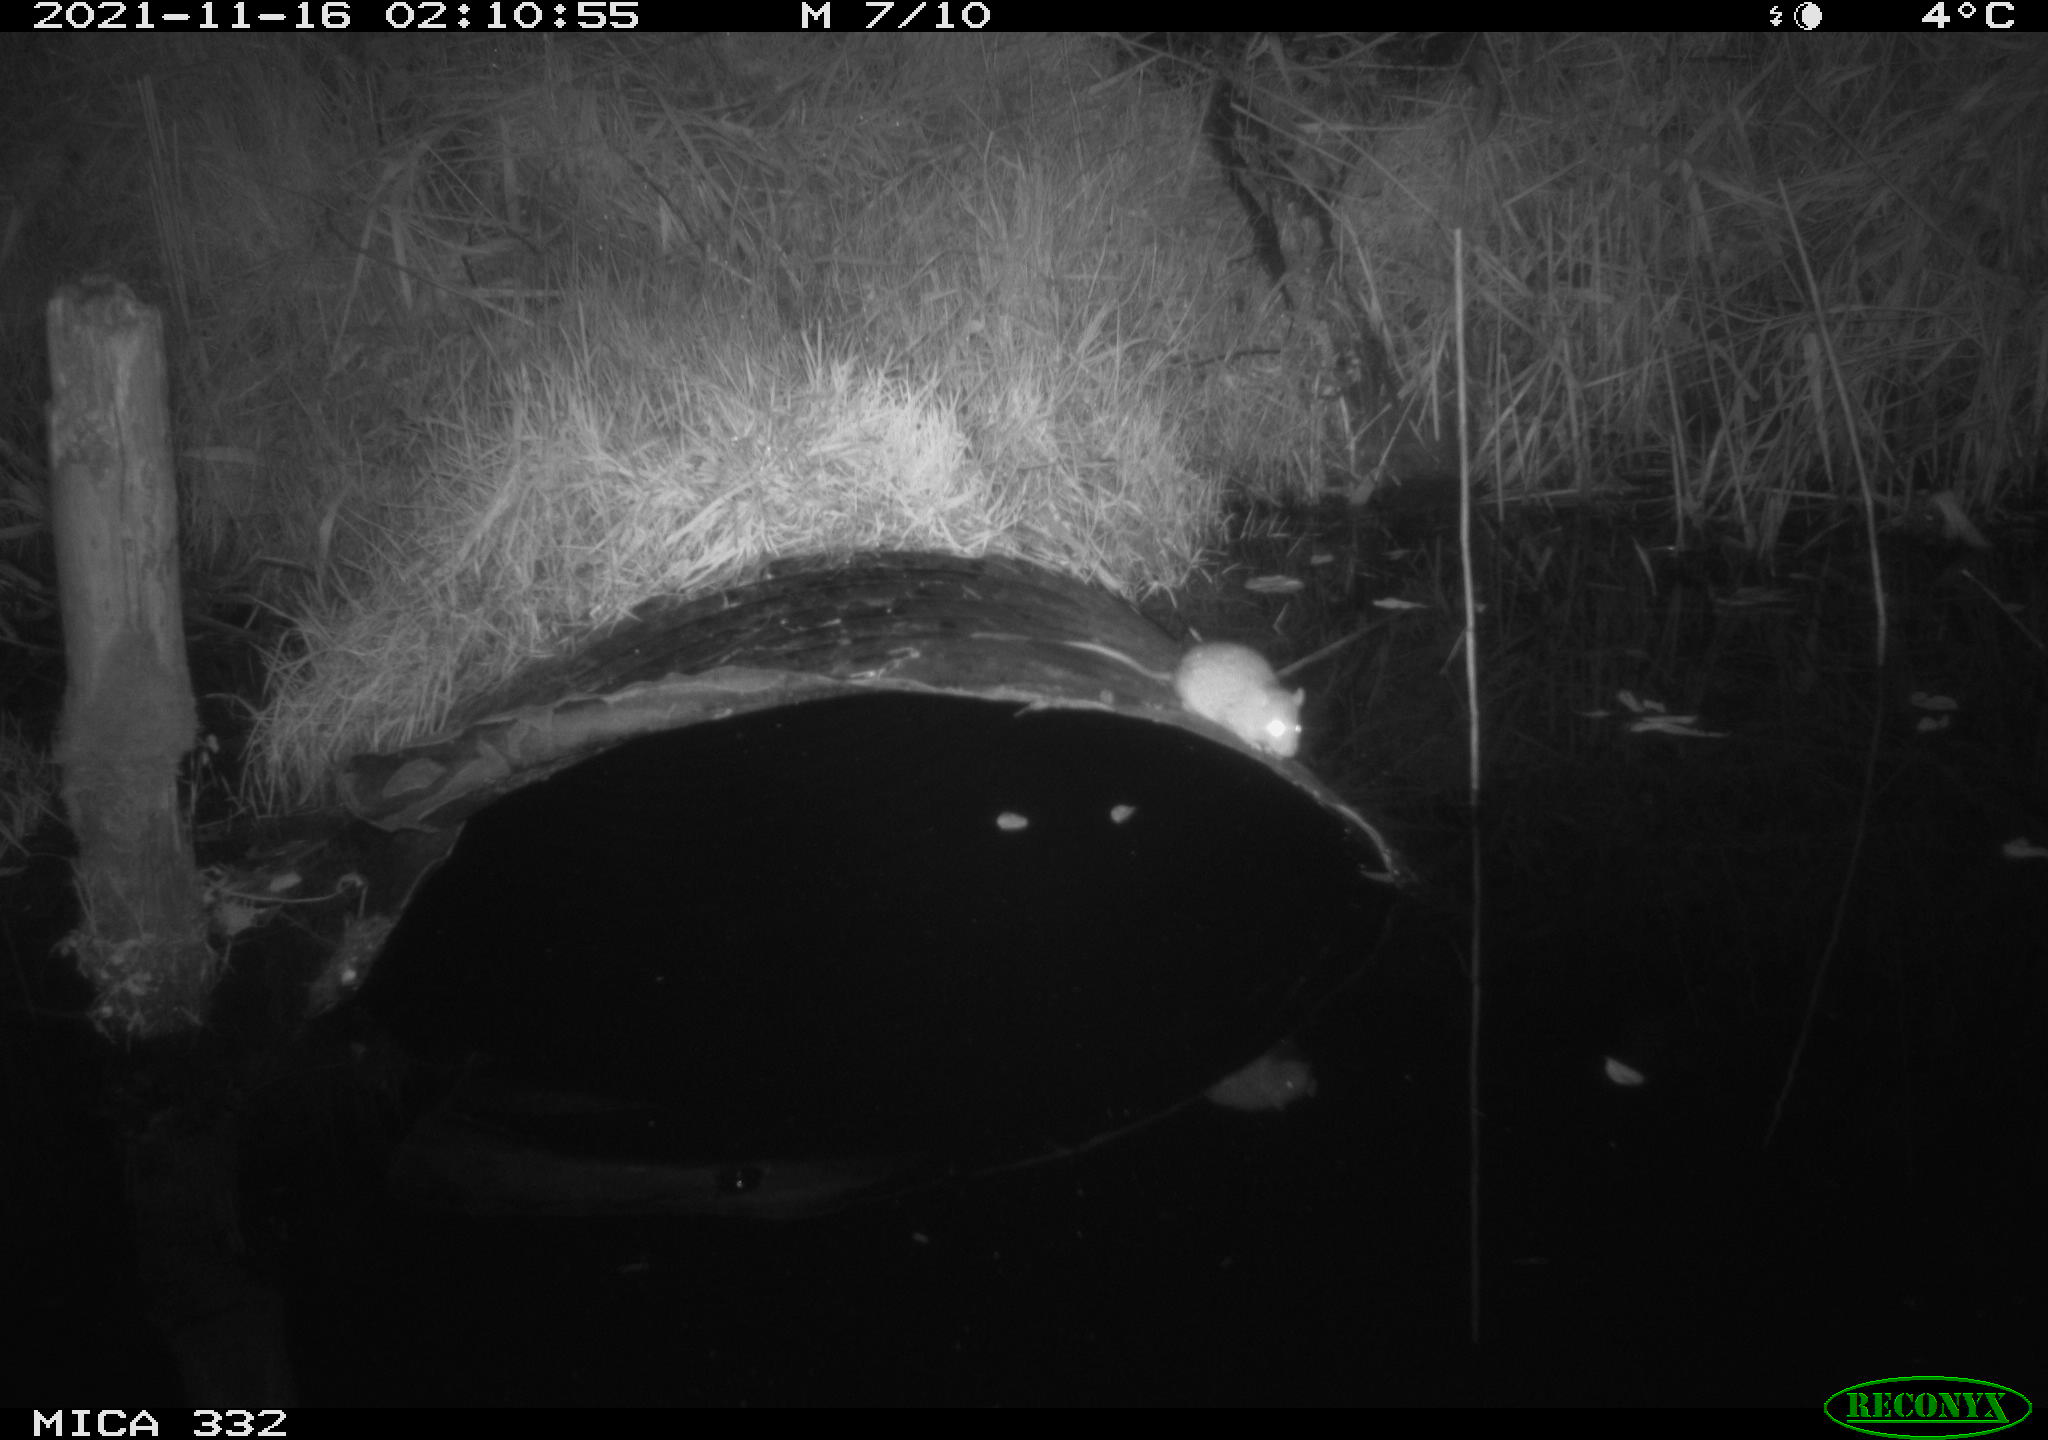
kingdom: Animalia
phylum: Chordata
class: Mammalia
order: Rodentia
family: Muridae
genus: Rattus
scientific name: Rattus norvegicus
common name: Brown rat
